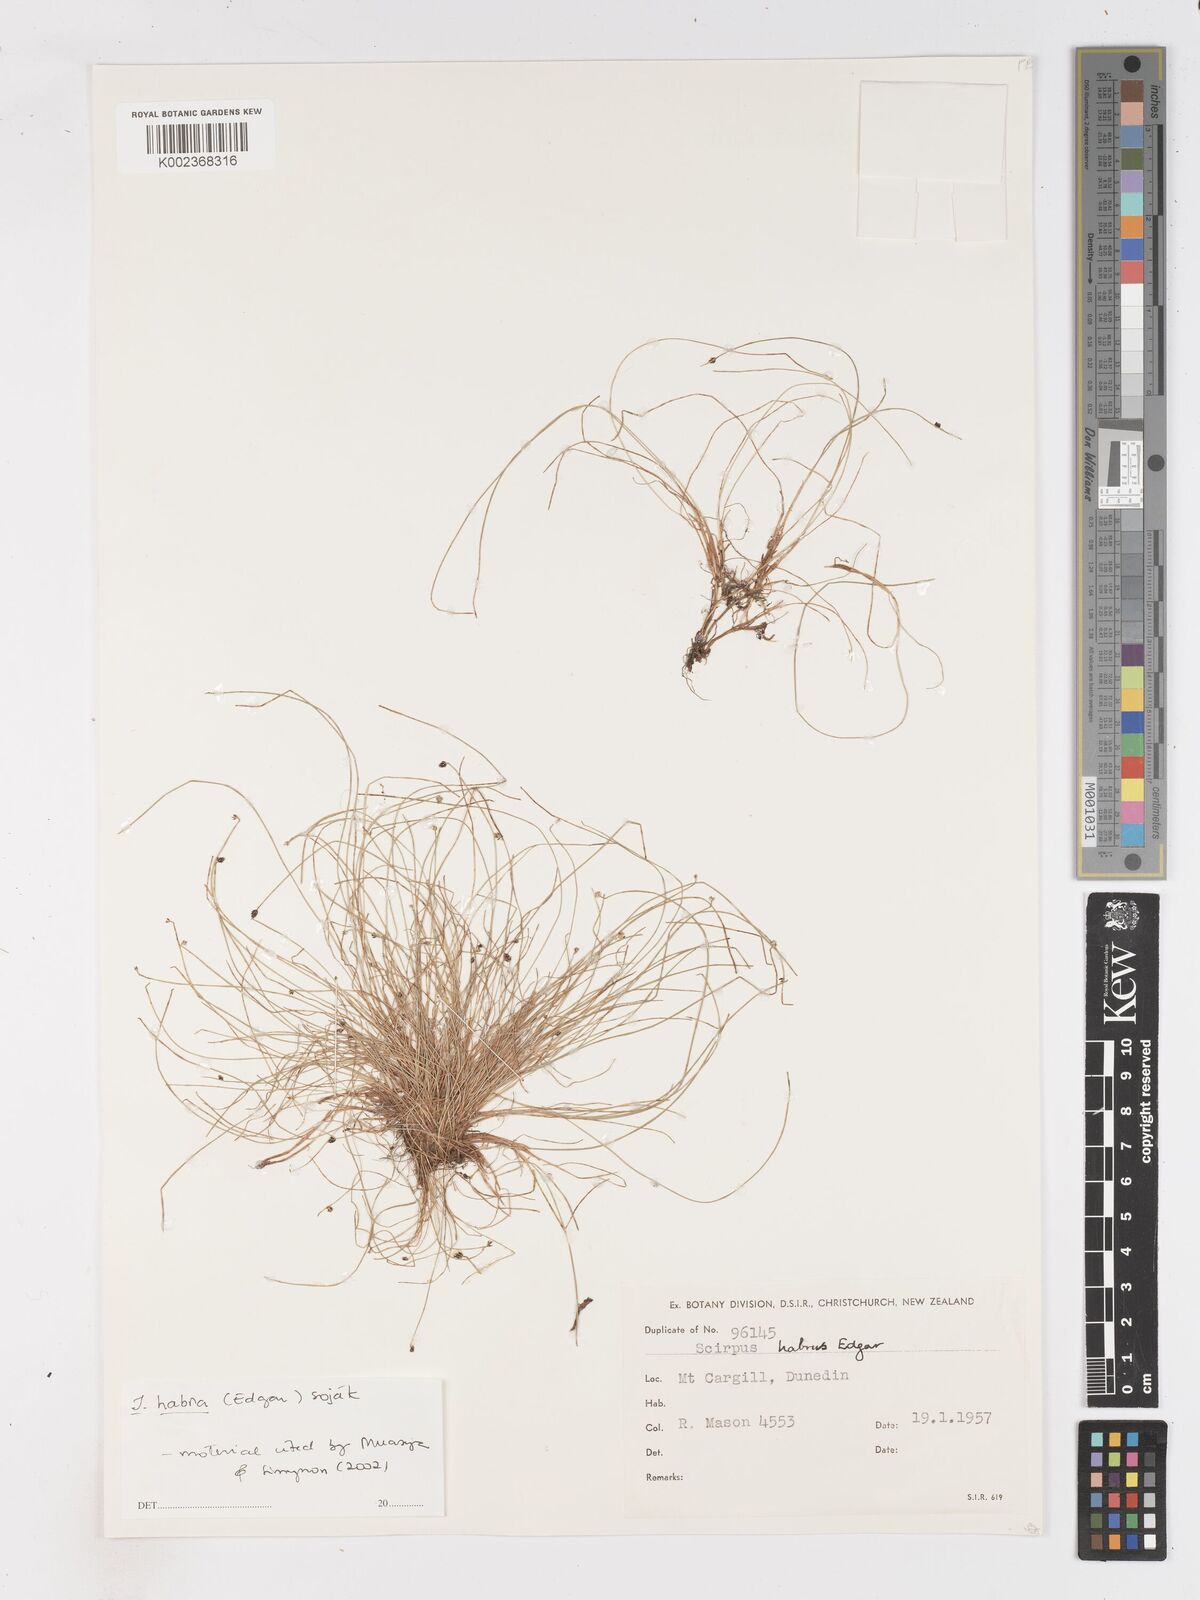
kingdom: Plantae
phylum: Tracheophyta
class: Liliopsida
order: Poales
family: Cyperaceae
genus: Isolepis
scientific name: Isolepis habra
